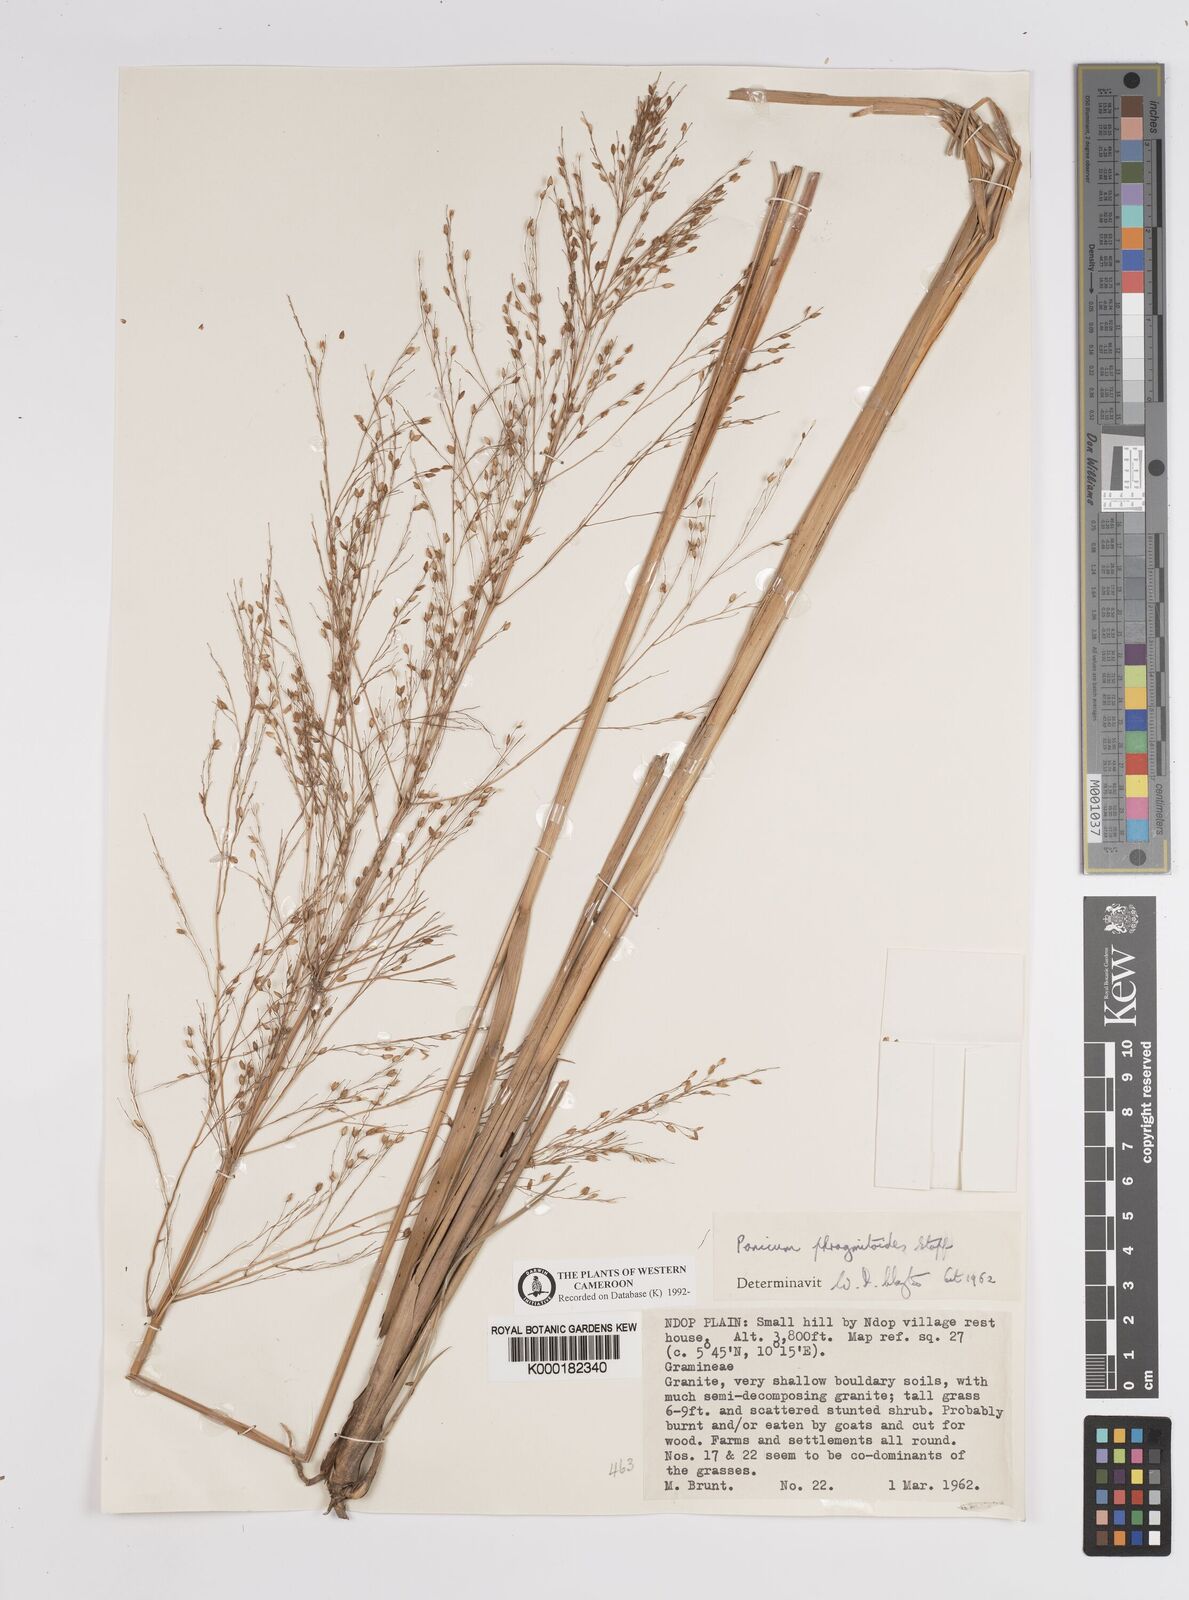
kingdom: Plantae
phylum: Tracheophyta
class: Liliopsida
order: Poales
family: Poaceae
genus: Panicum
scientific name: Panicum phragmitoides
